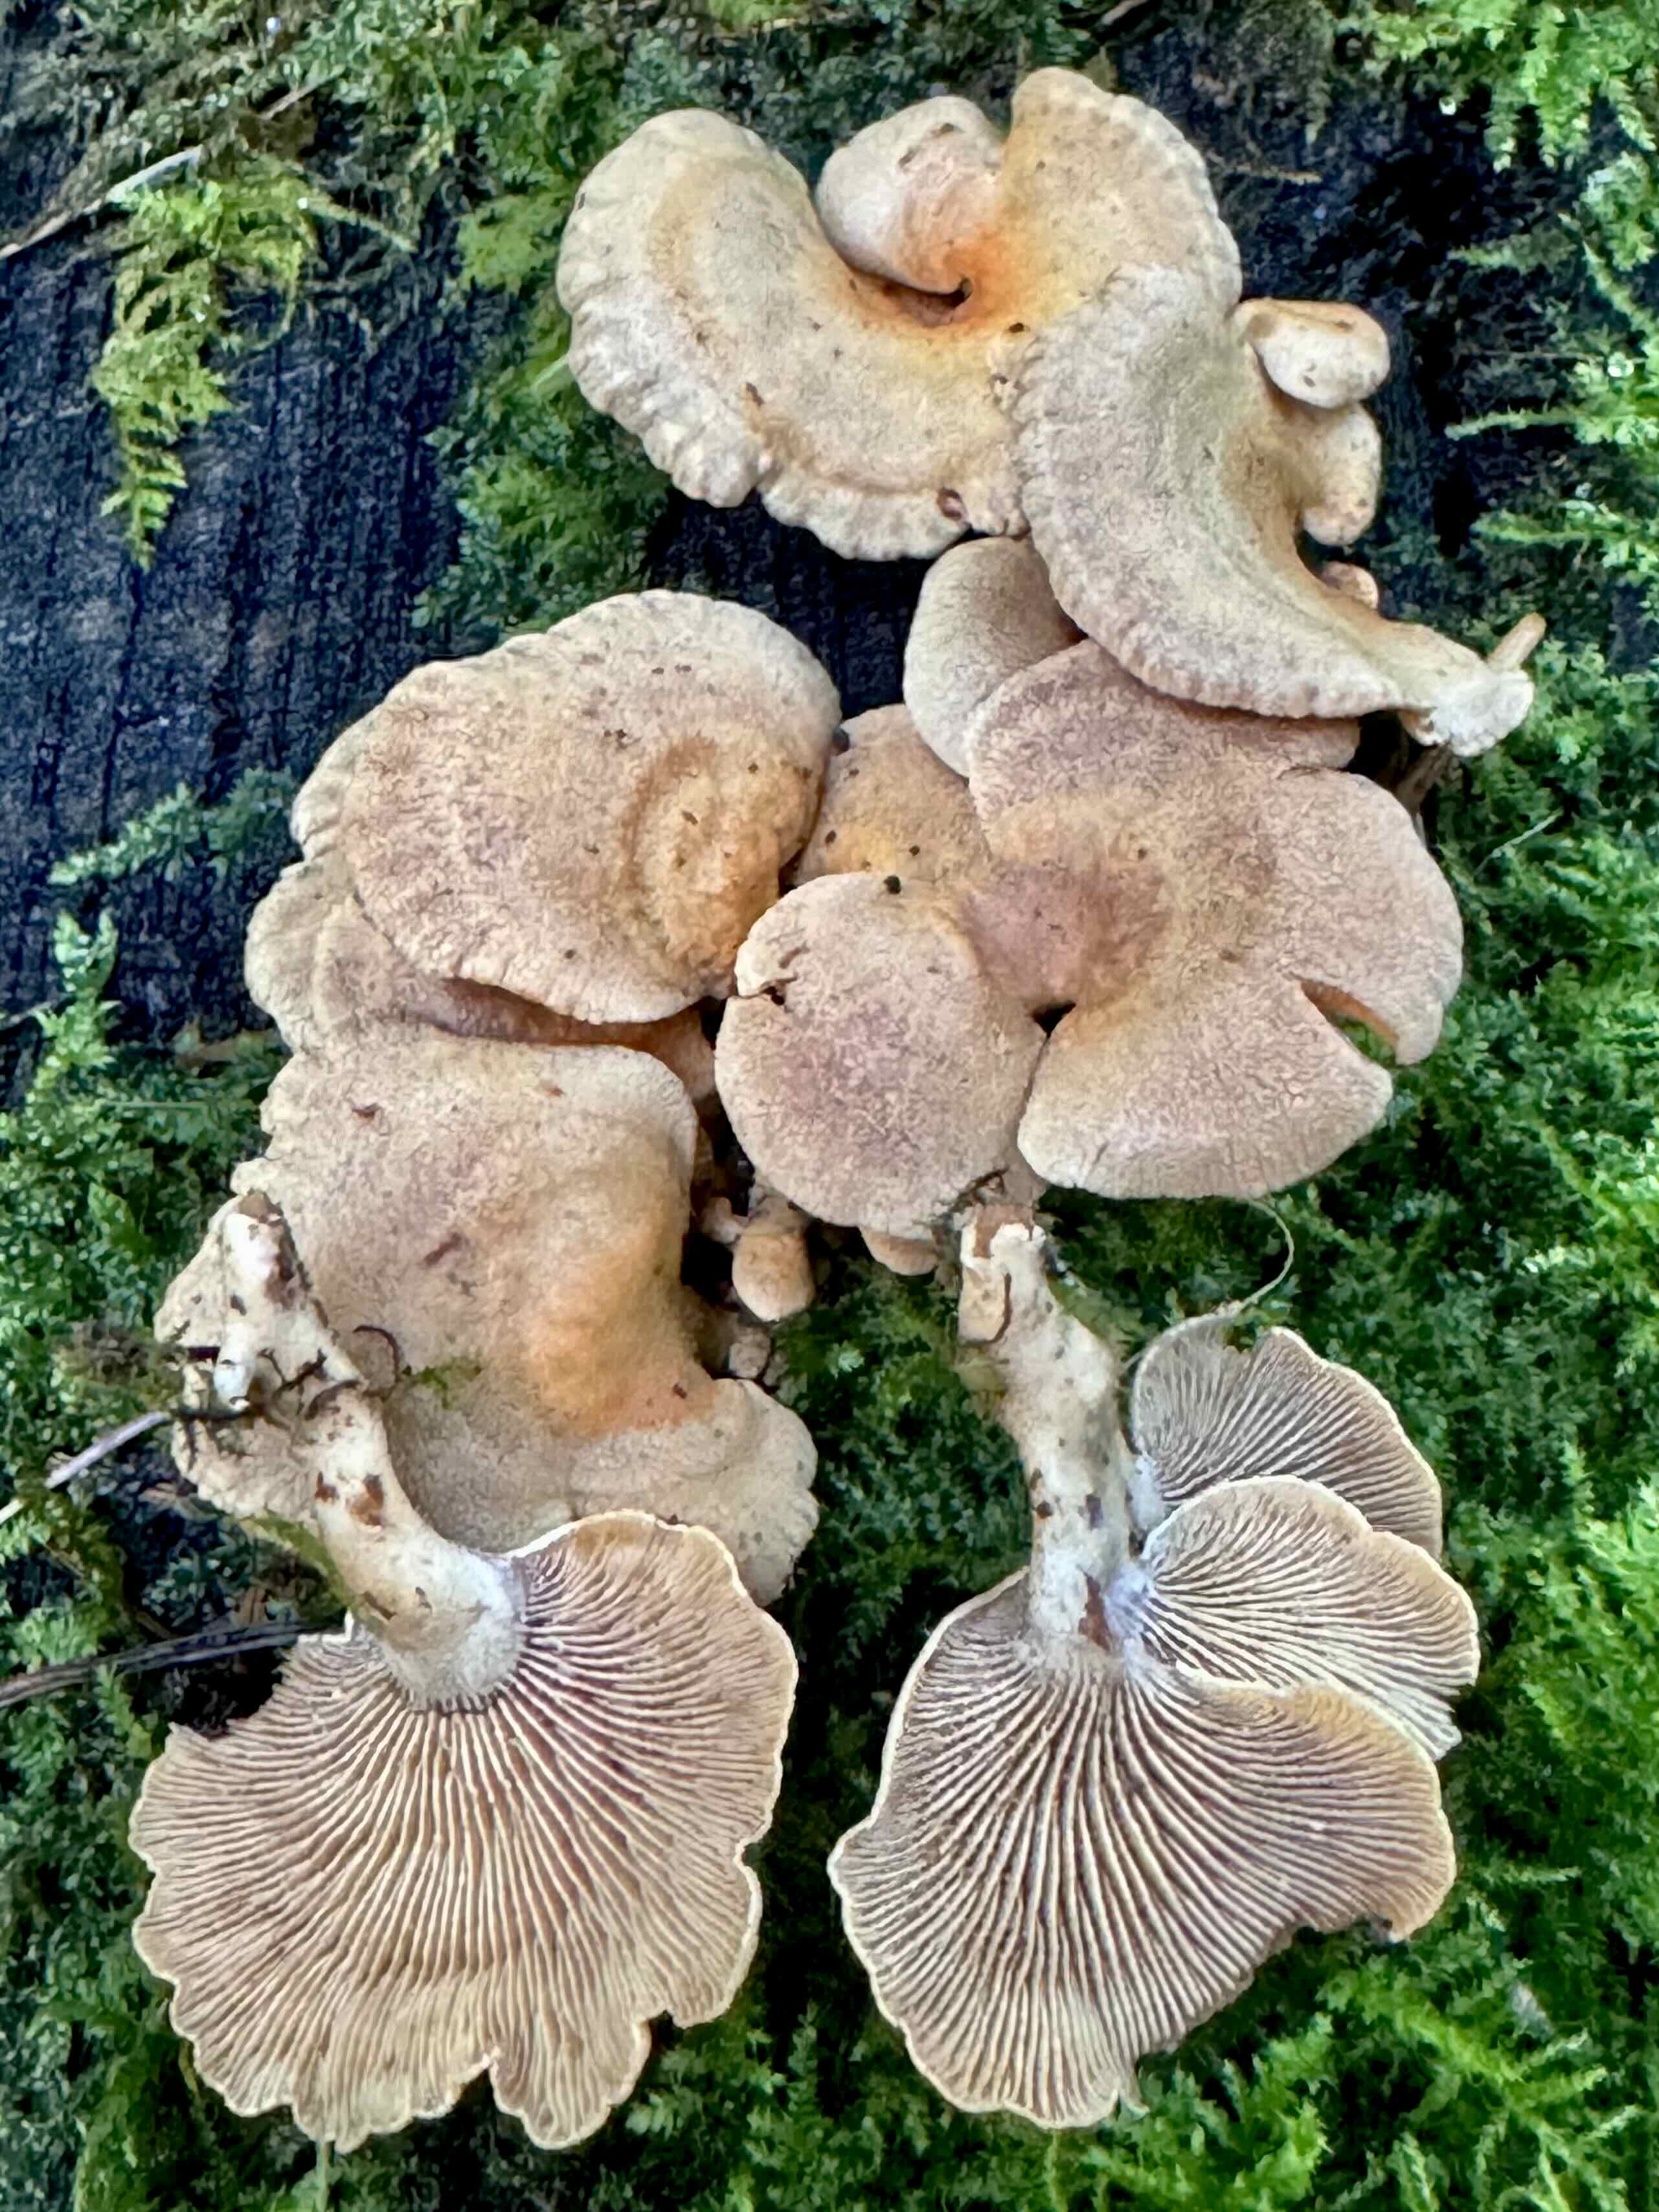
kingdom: Fungi
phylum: Basidiomycota
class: Agaricomycetes
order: Agaricales
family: Mycenaceae
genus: Panellus
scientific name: Panellus stipticus
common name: kliddet epaulethat
